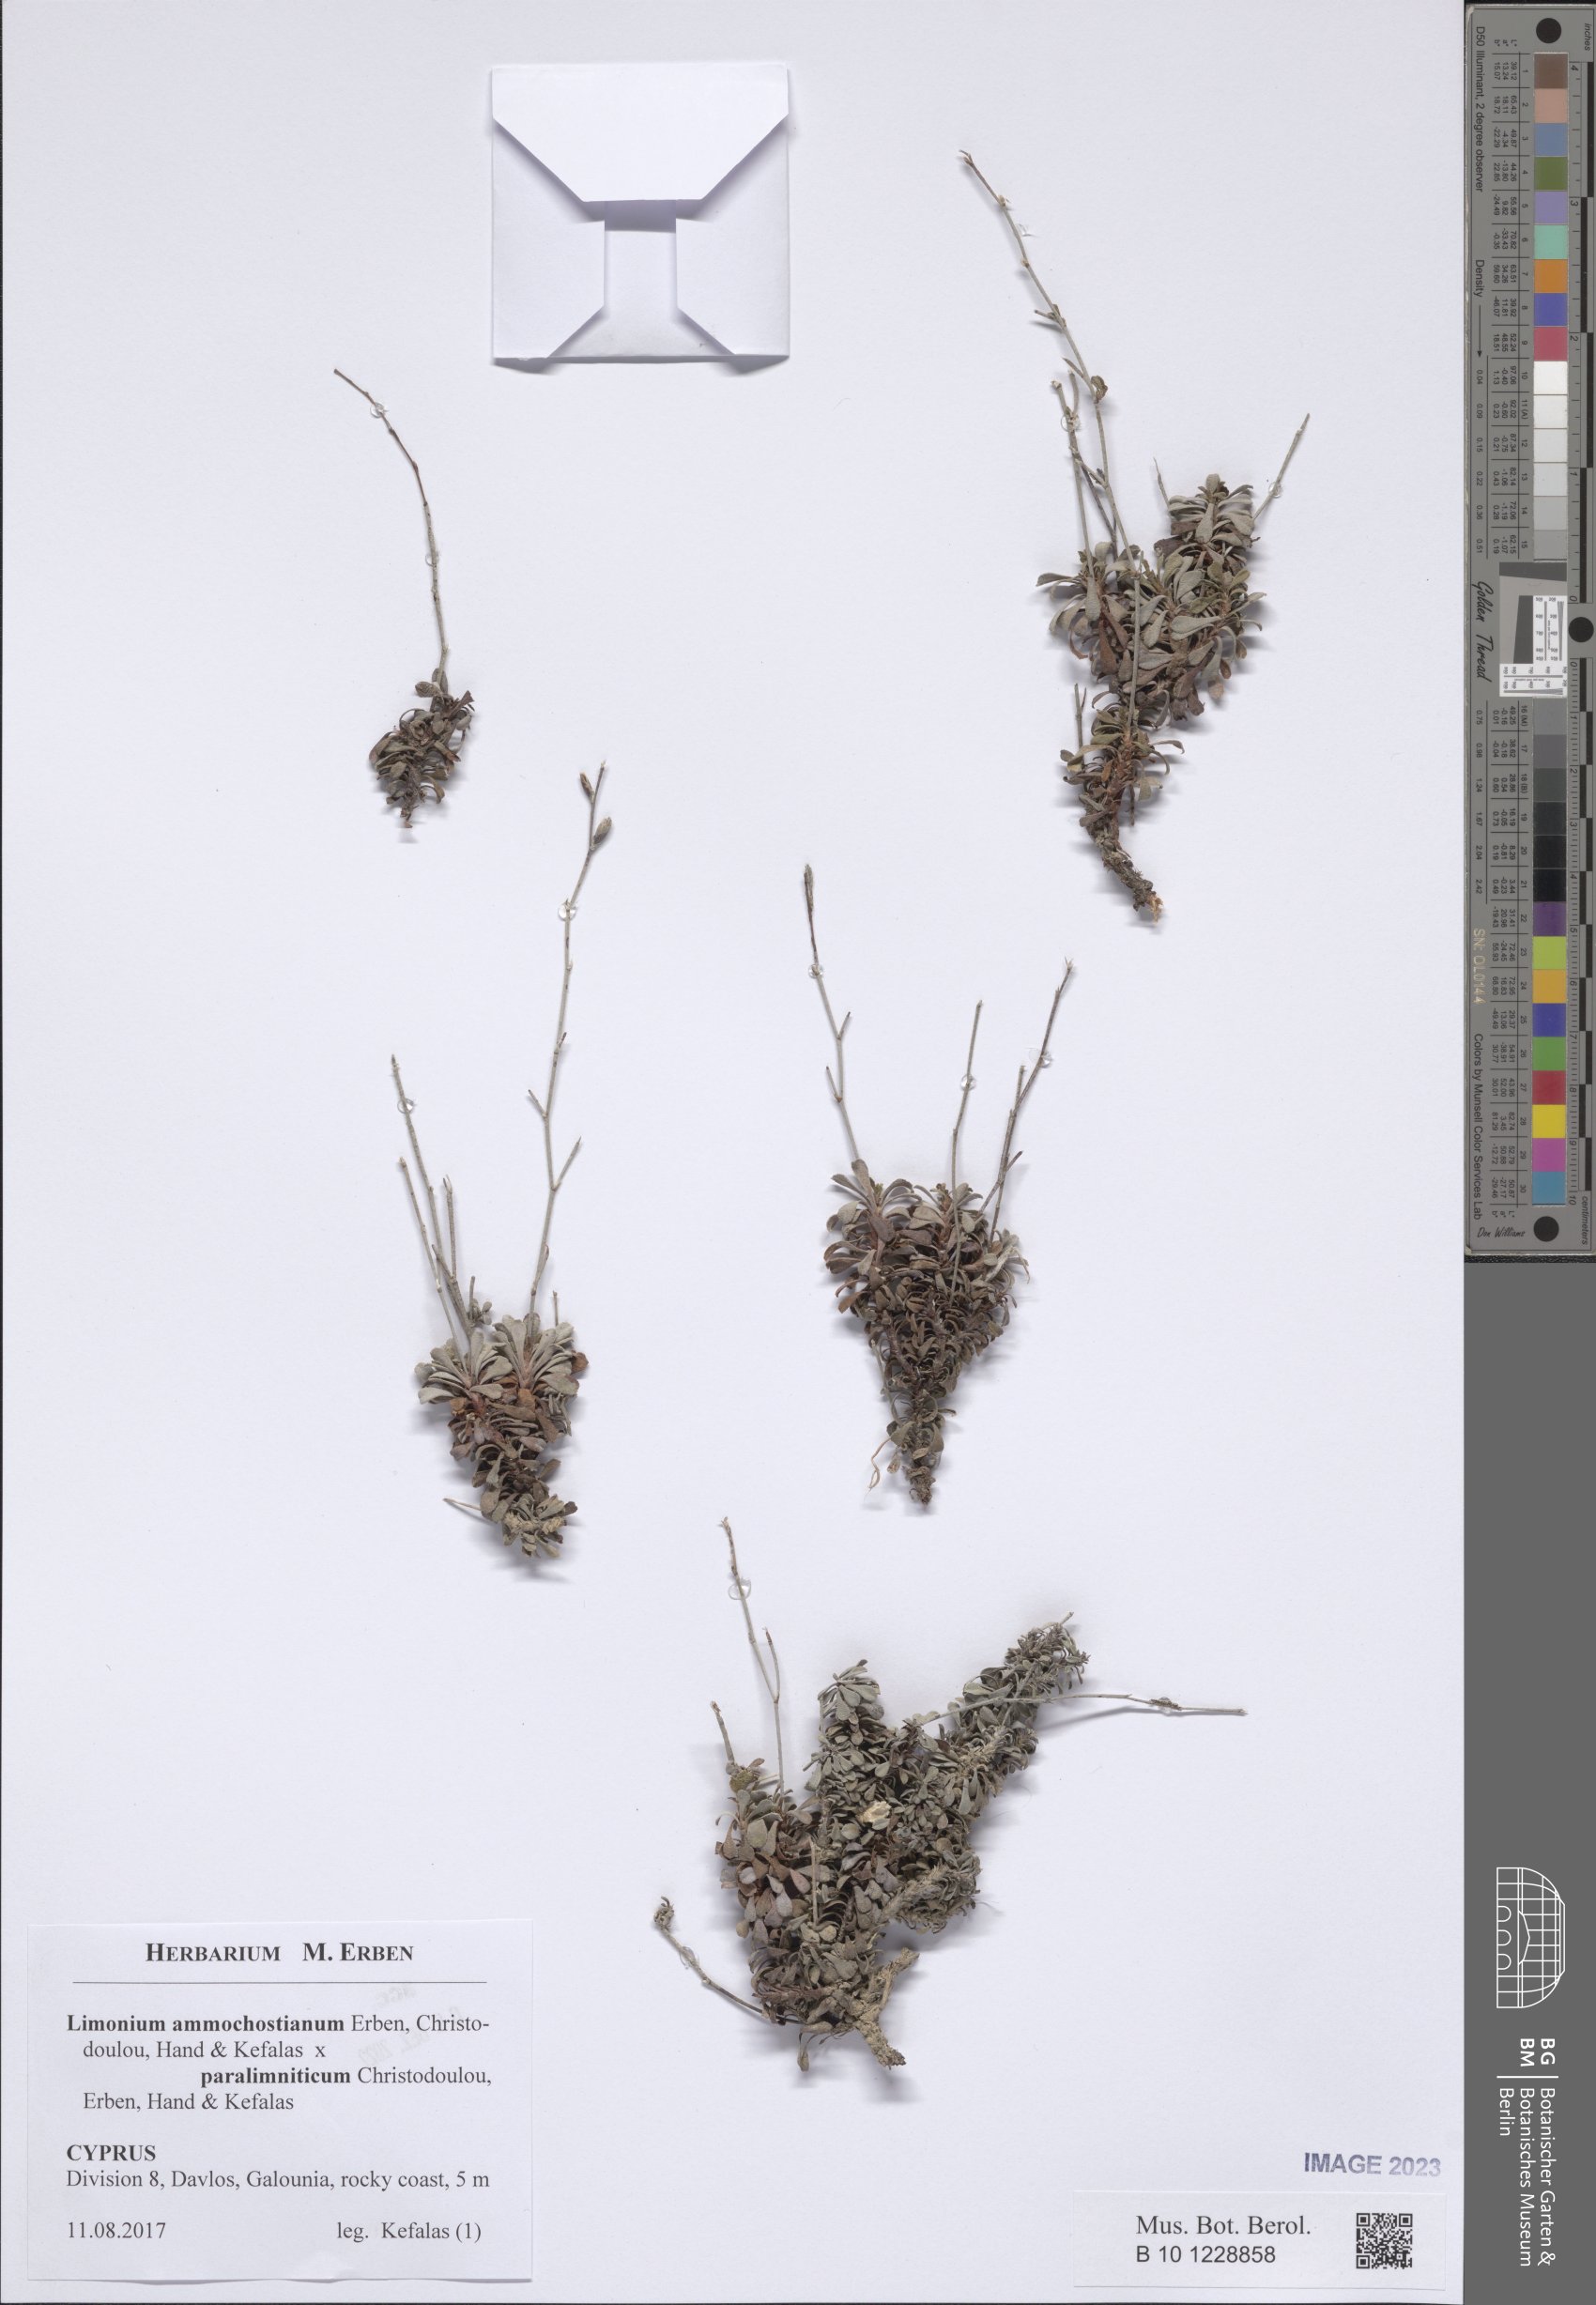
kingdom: Plantae
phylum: Tracheophyta
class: Magnoliopsida
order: Caryophyllales
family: Plumbaginaceae
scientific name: Plumbaginaceae
